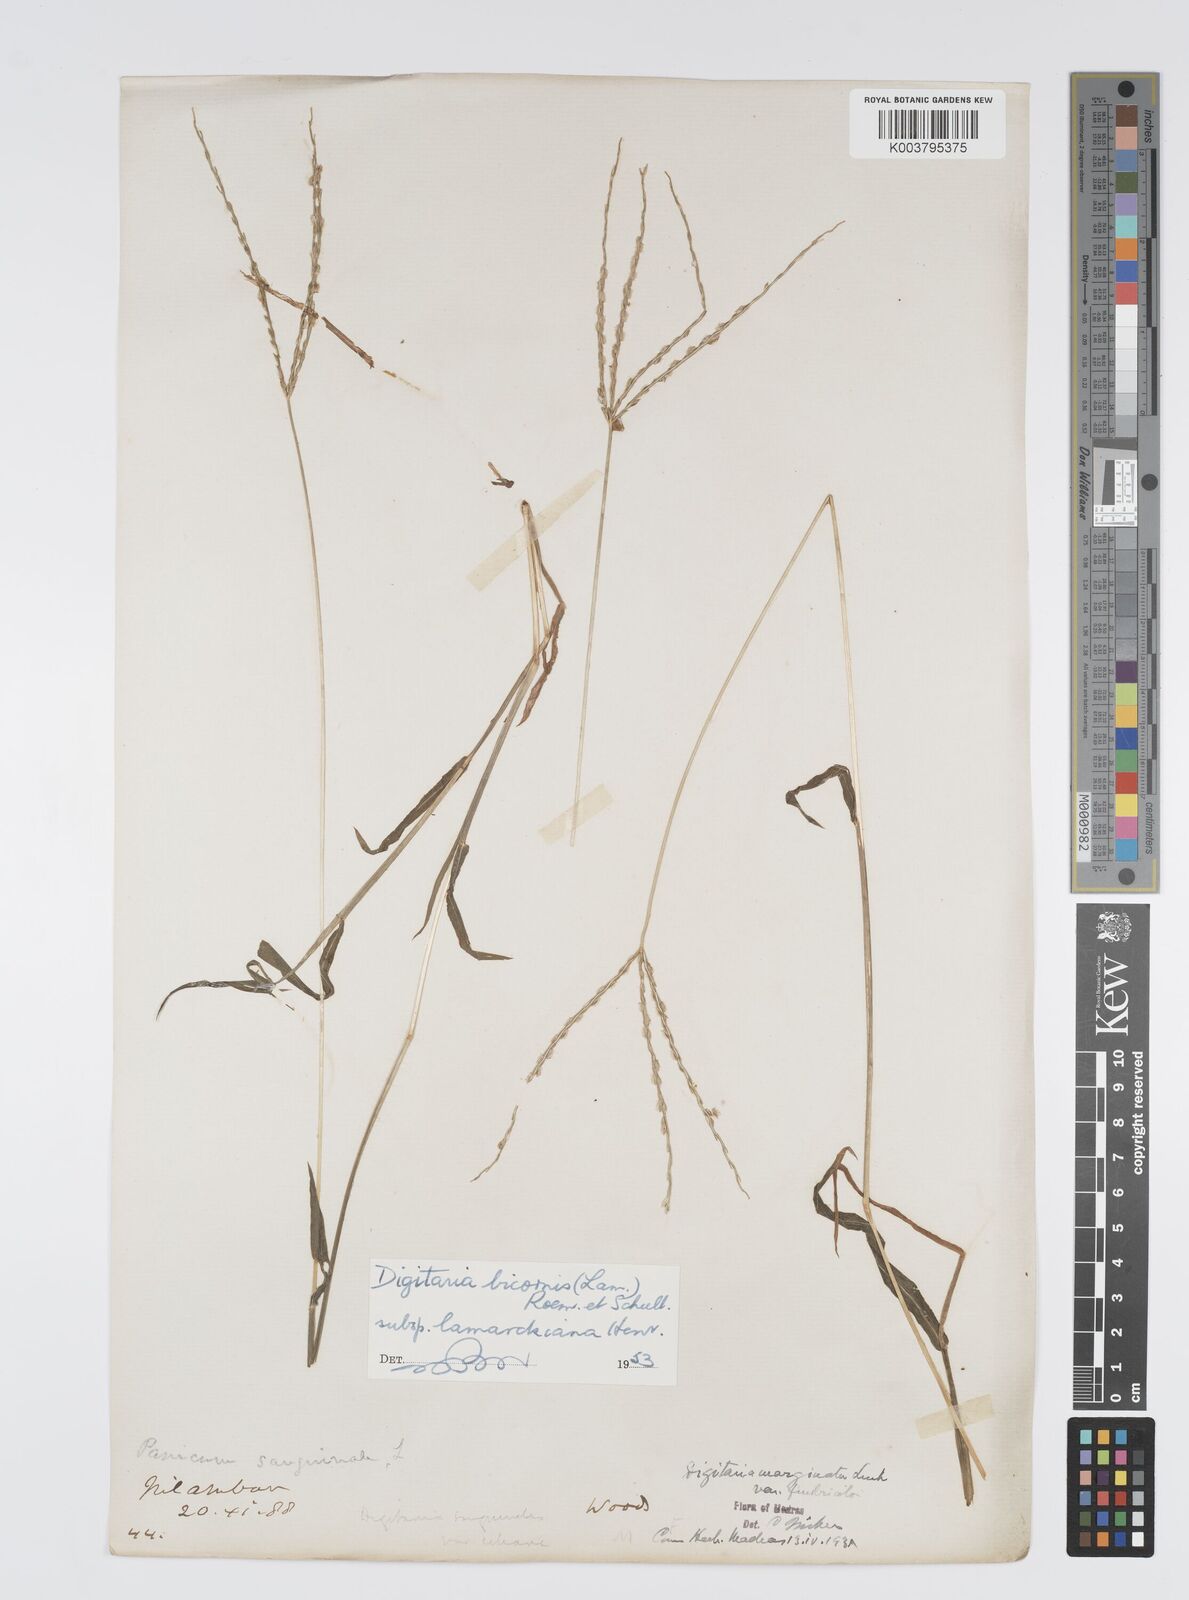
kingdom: Plantae
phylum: Tracheophyta
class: Liliopsida
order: Poales
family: Poaceae
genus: Digitaria
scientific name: Digitaria ciliaris
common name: Tropical finger-grass
